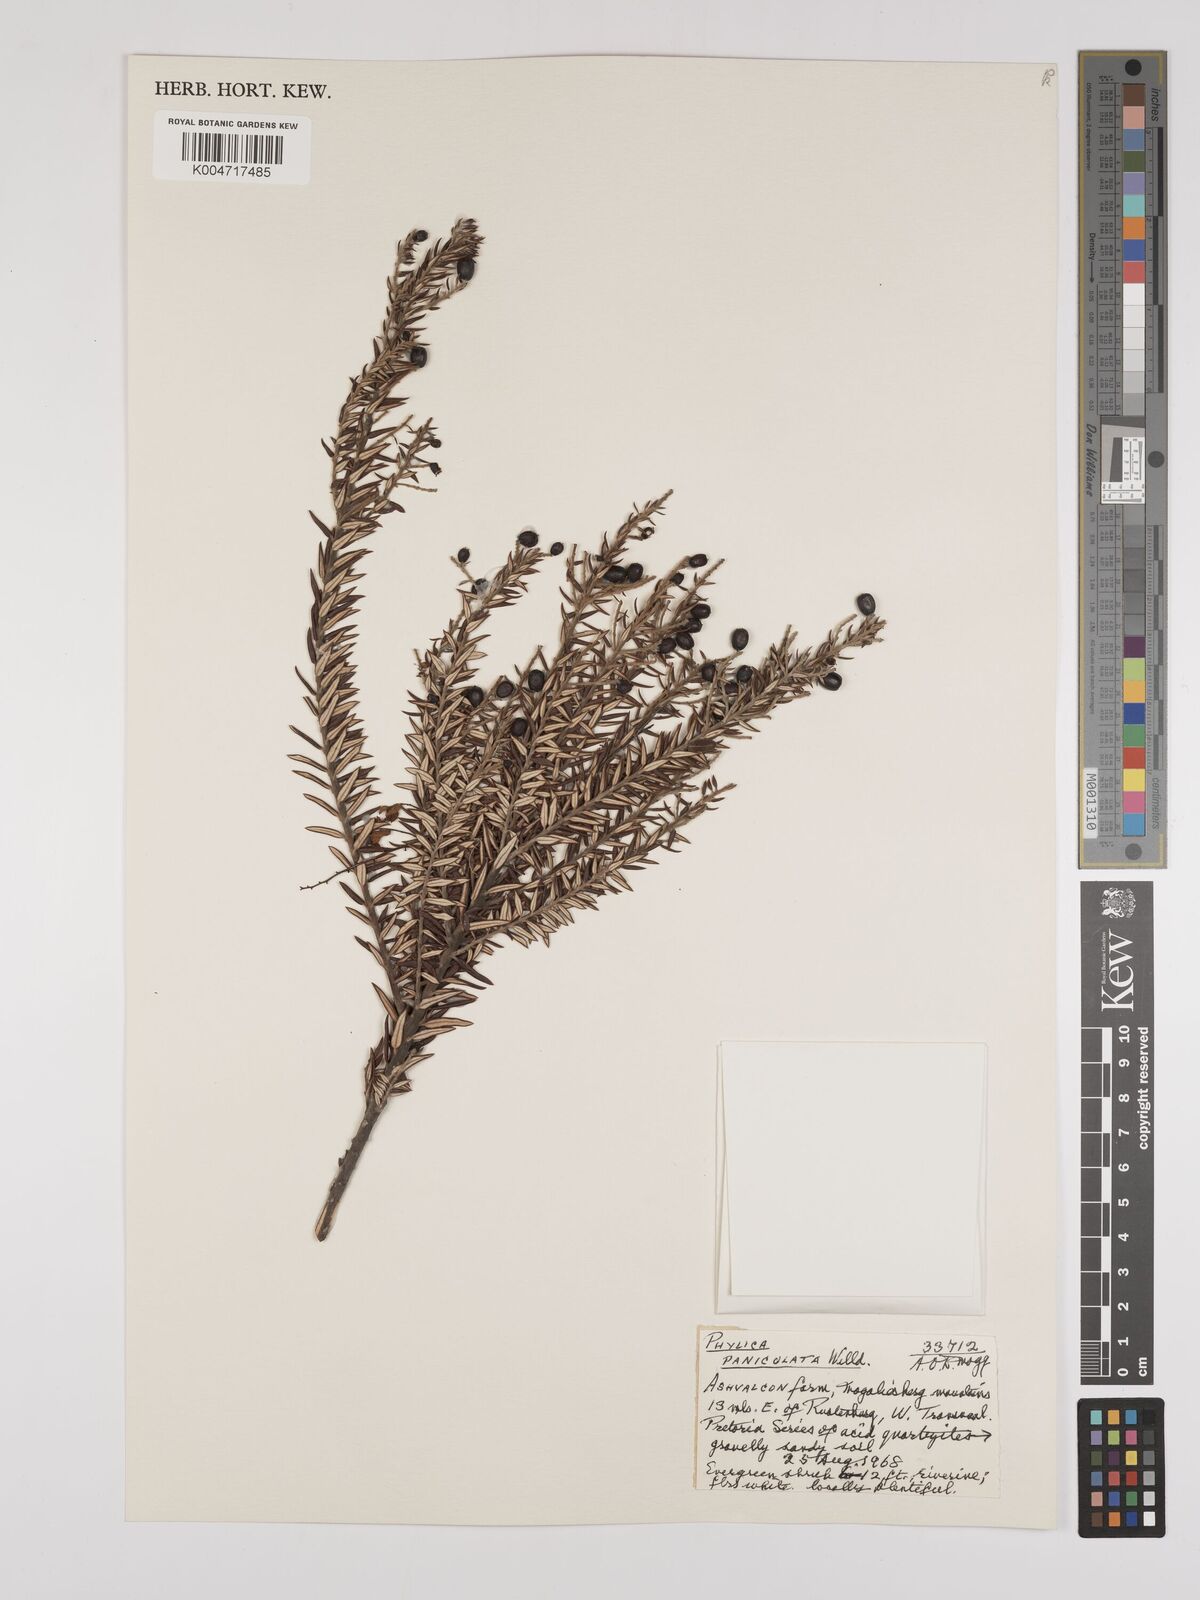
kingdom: Plantae
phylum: Tracheophyta
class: Magnoliopsida
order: Rosales
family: Rhamnaceae
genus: Phylica
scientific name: Phylica paniculata
